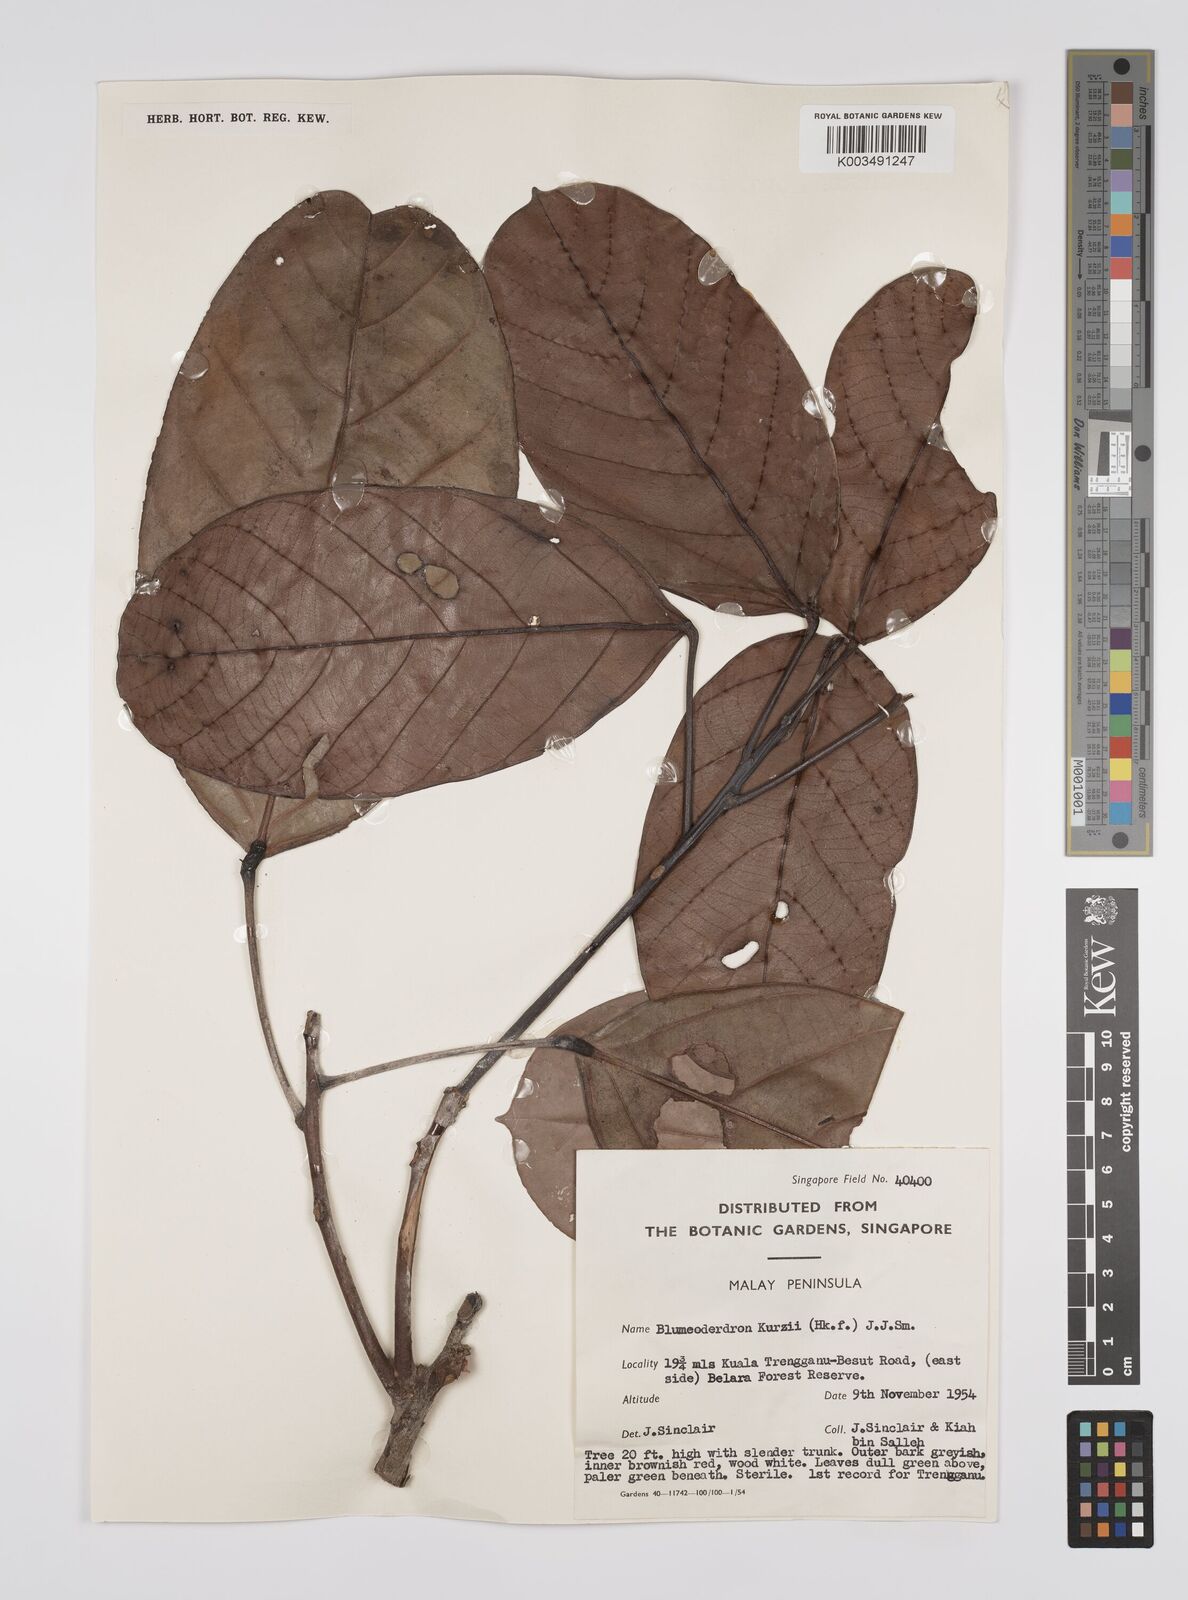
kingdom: Plantae
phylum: Tracheophyta
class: Magnoliopsida
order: Malpighiales
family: Euphorbiaceae
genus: Blumeodendron
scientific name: Blumeodendron kurzii
